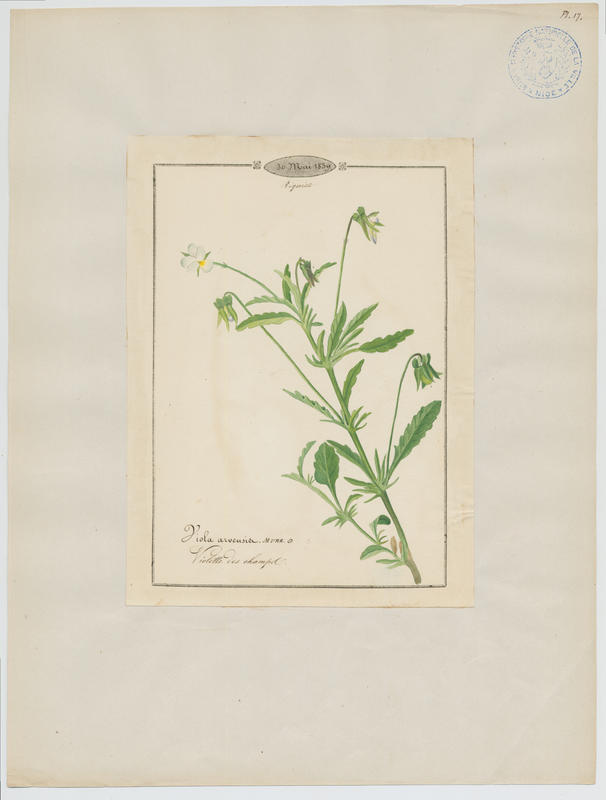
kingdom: Plantae
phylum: Tracheophyta
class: Magnoliopsida
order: Malpighiales
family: Violaceae
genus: Viola
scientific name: Viola arvensis
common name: Field pansy
